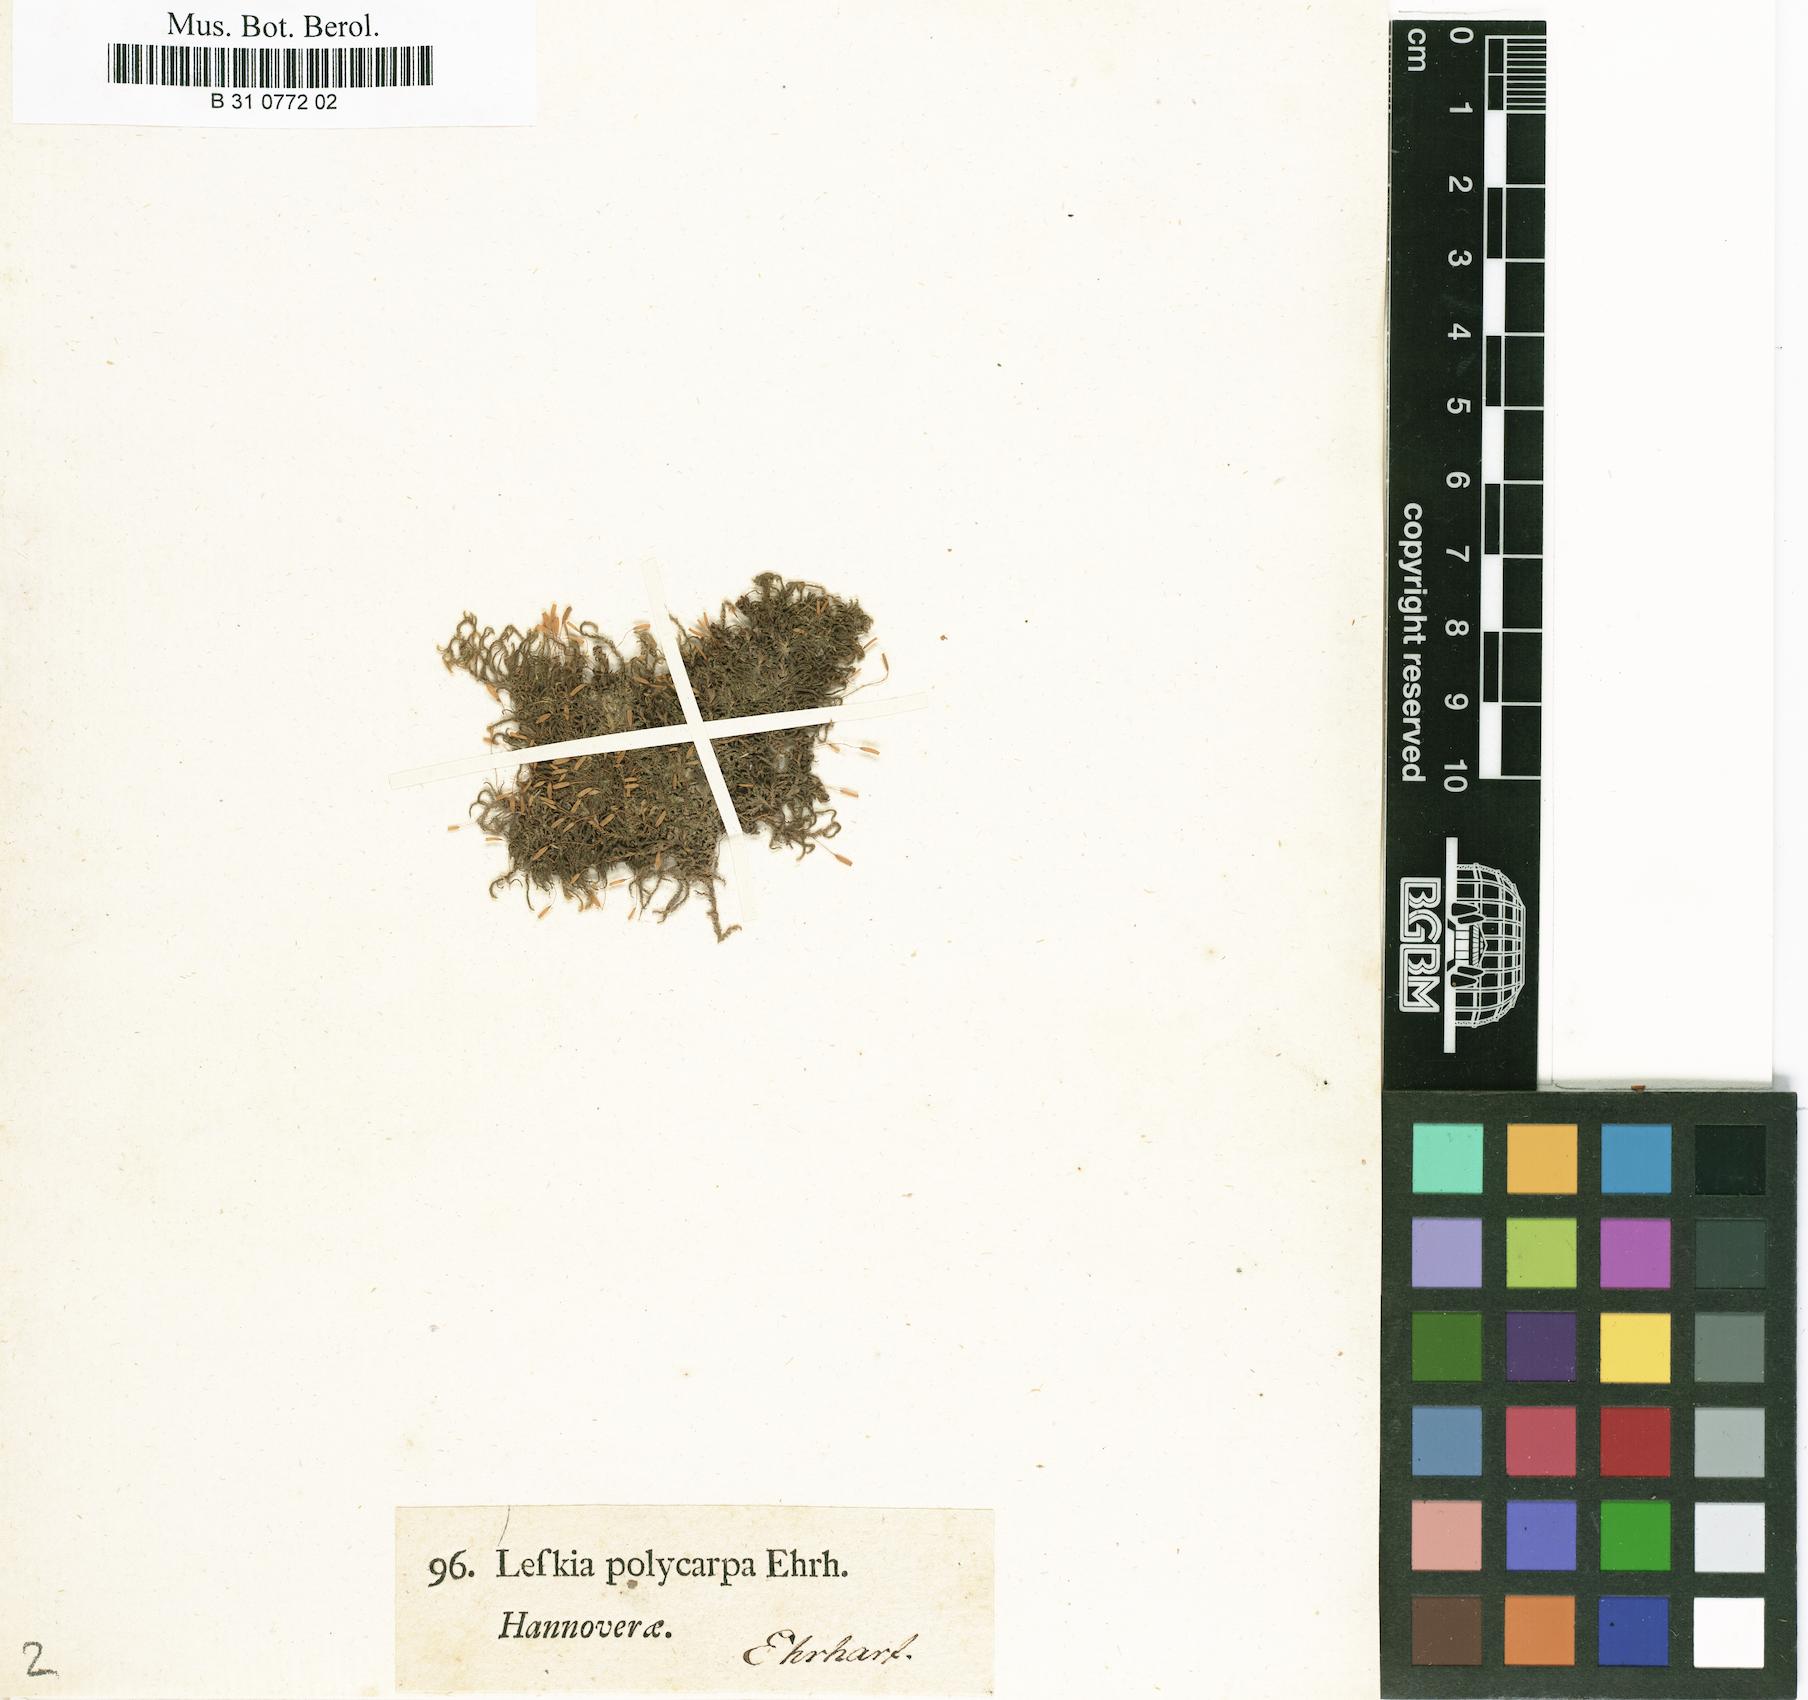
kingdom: Plantae
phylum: Bryophyta
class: Bryopsida
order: Hypnales
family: Leskeaceae
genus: Leskea
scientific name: Leskea polycarpa
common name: Many-fruited leske's moss
